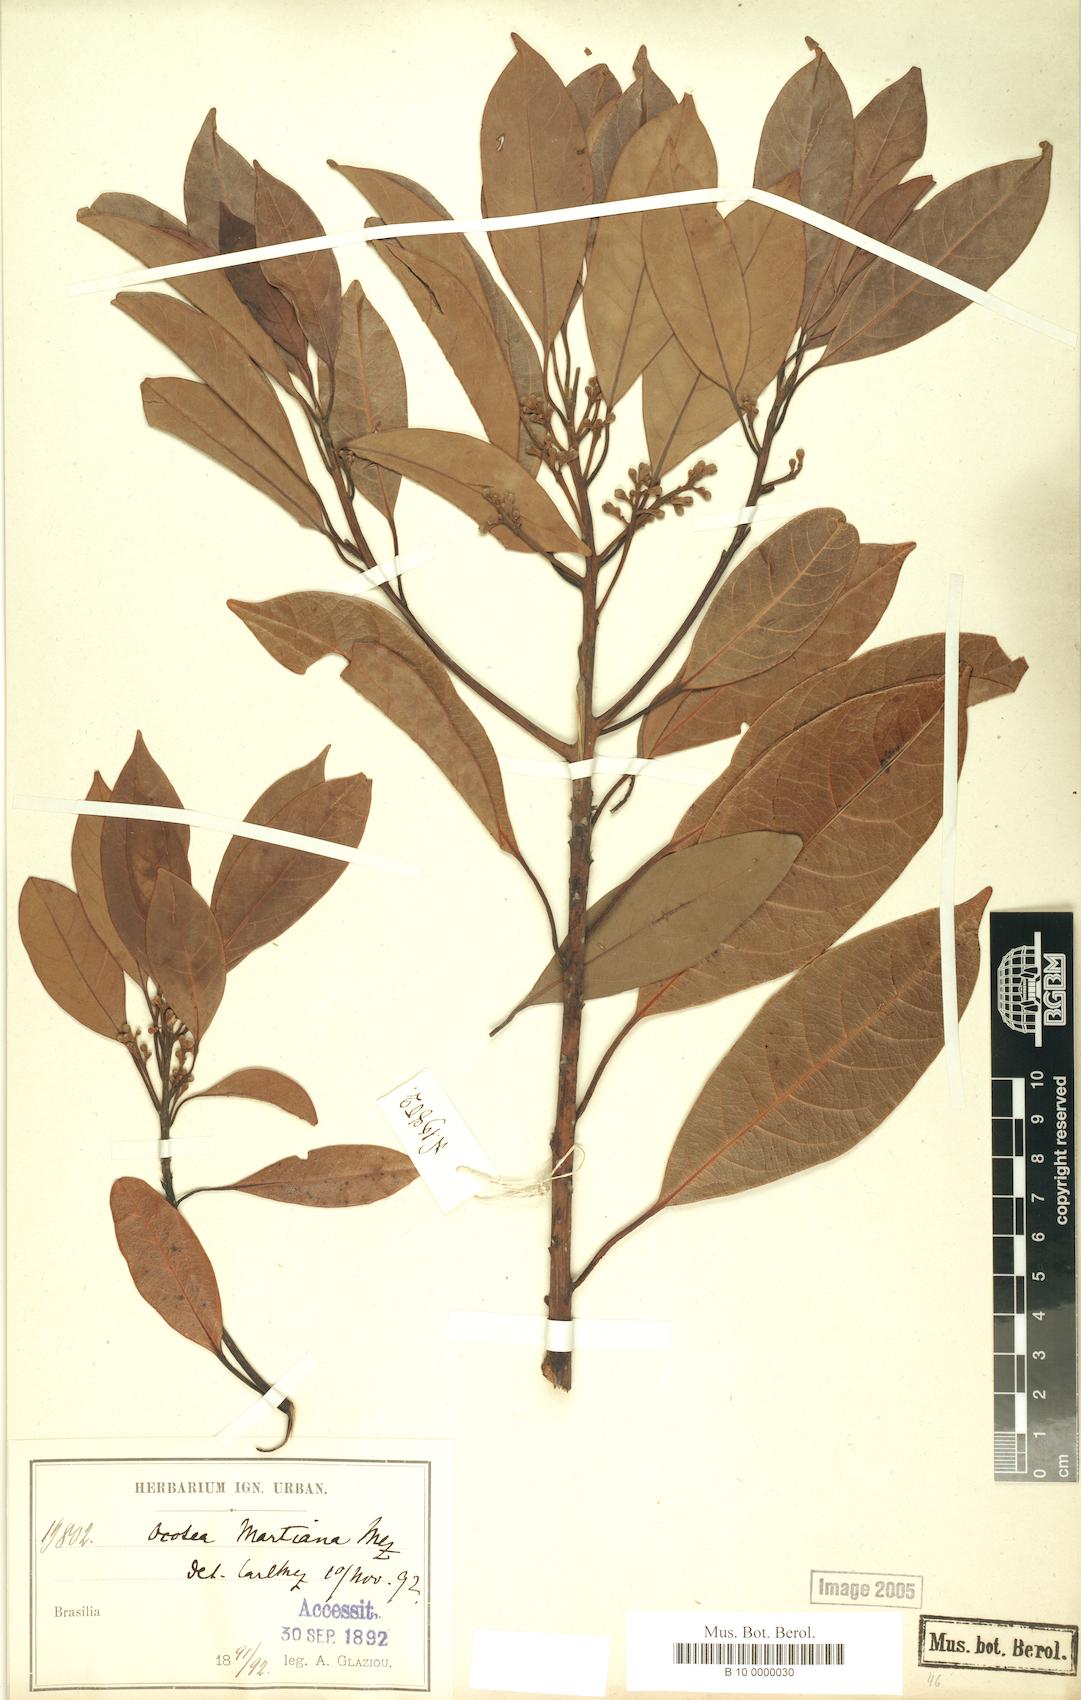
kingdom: Plantae
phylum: Tracheophyta
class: Magnoliopsida
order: Laurales
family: Lauraceae
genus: Ocotea
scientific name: Ocotea lancifolia
